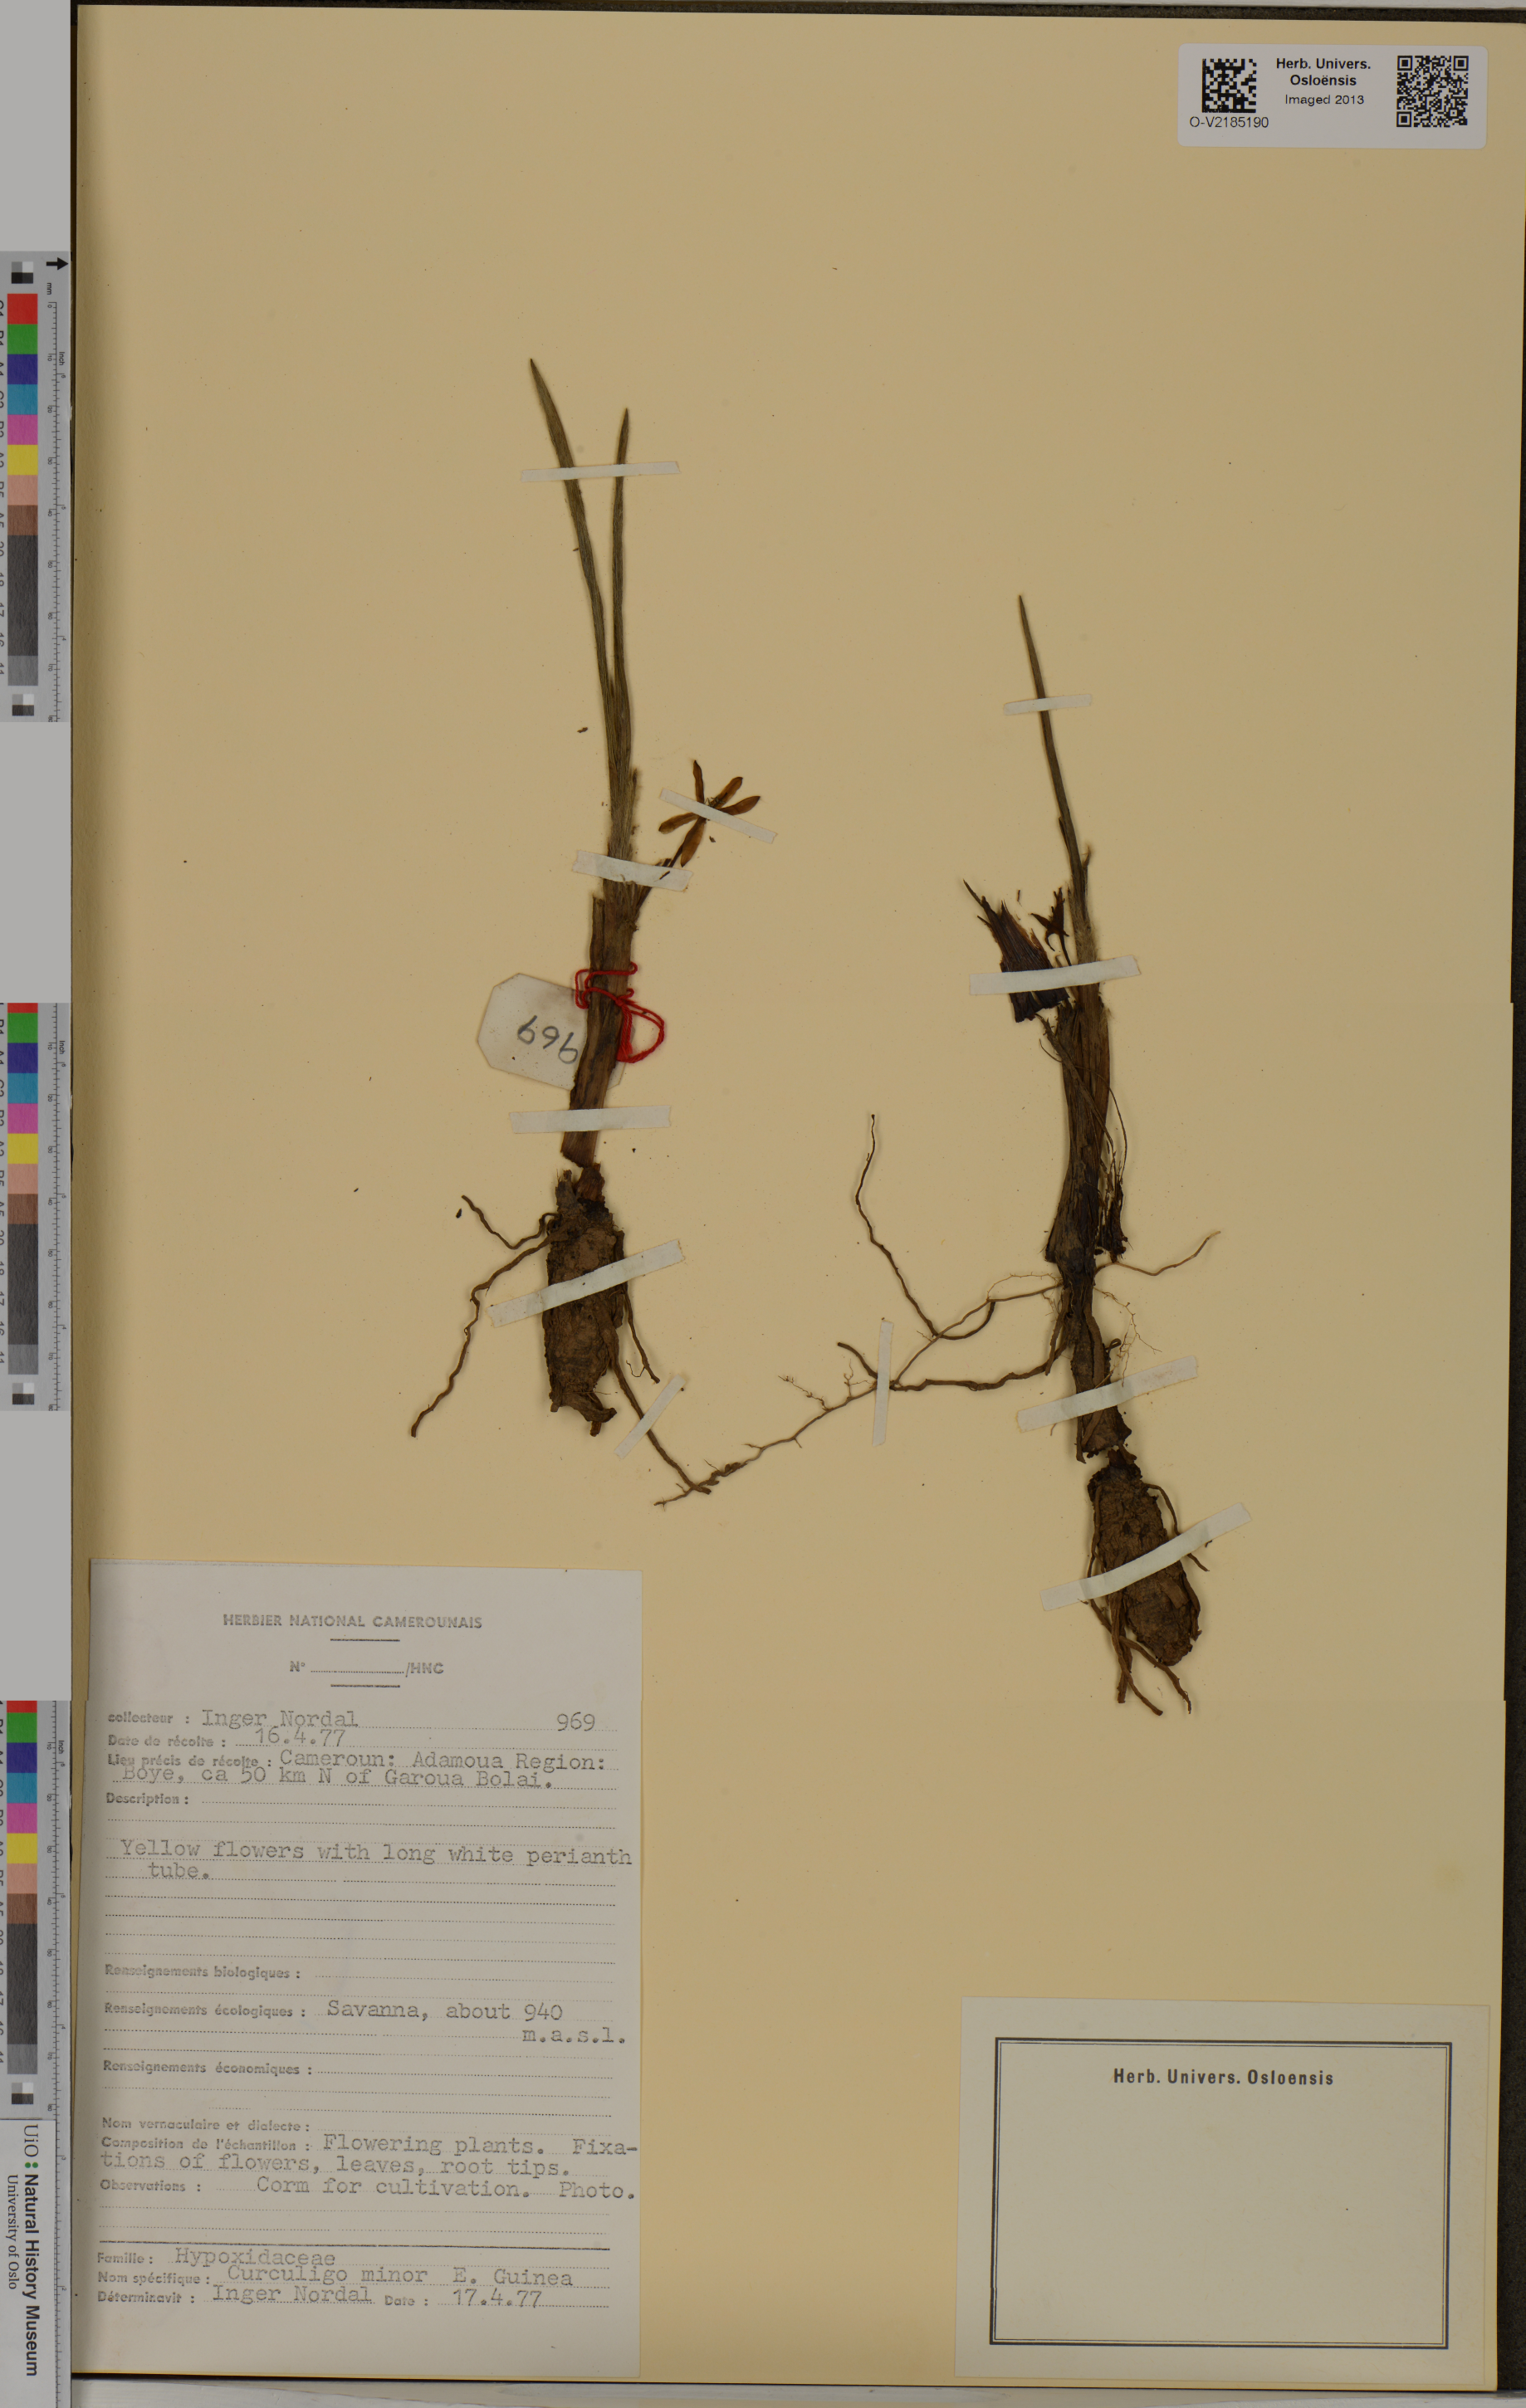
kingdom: Plantae
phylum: Tracheophyta
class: Liliopsida
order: Asparagales
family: Hypoxidaceae
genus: Curculigo
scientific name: Curculigo pilosa
